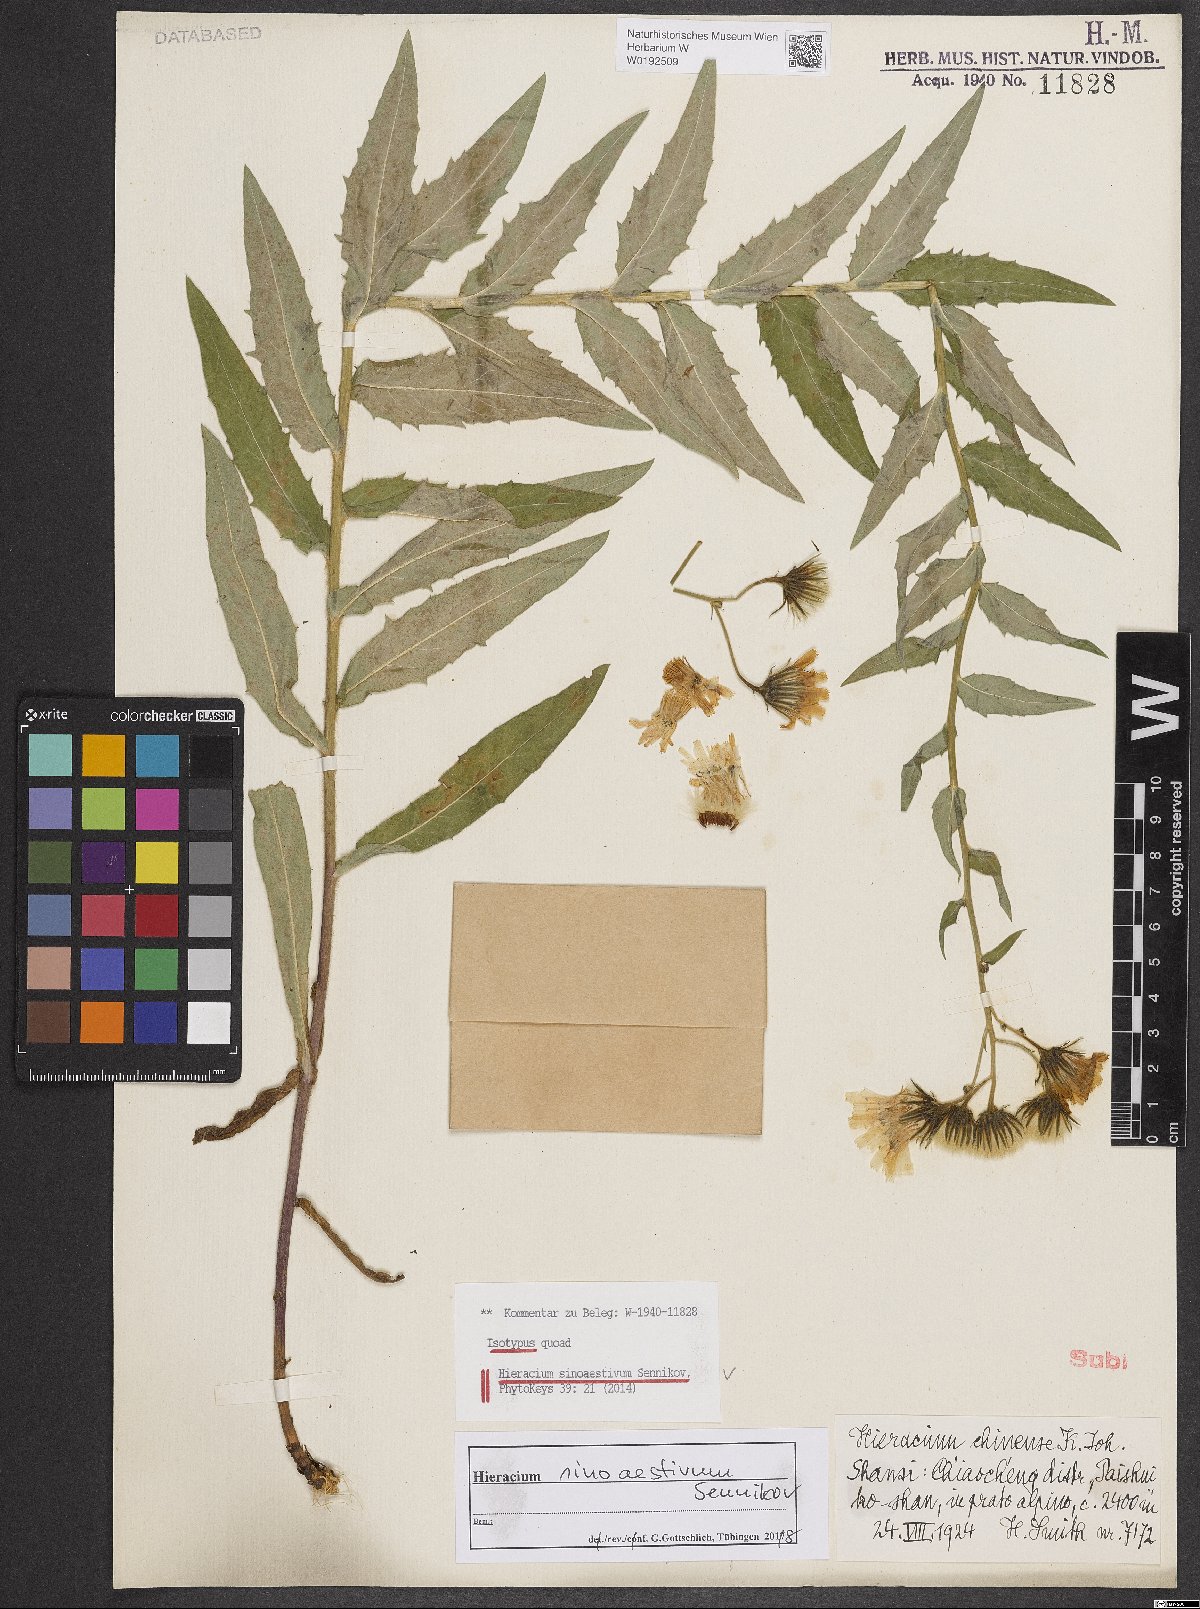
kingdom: Plantae
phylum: Tracheophyta
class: Magnoliopsida
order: Asterales
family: Asteraceae
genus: Hieracium
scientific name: Hieracium sinoaestivum
